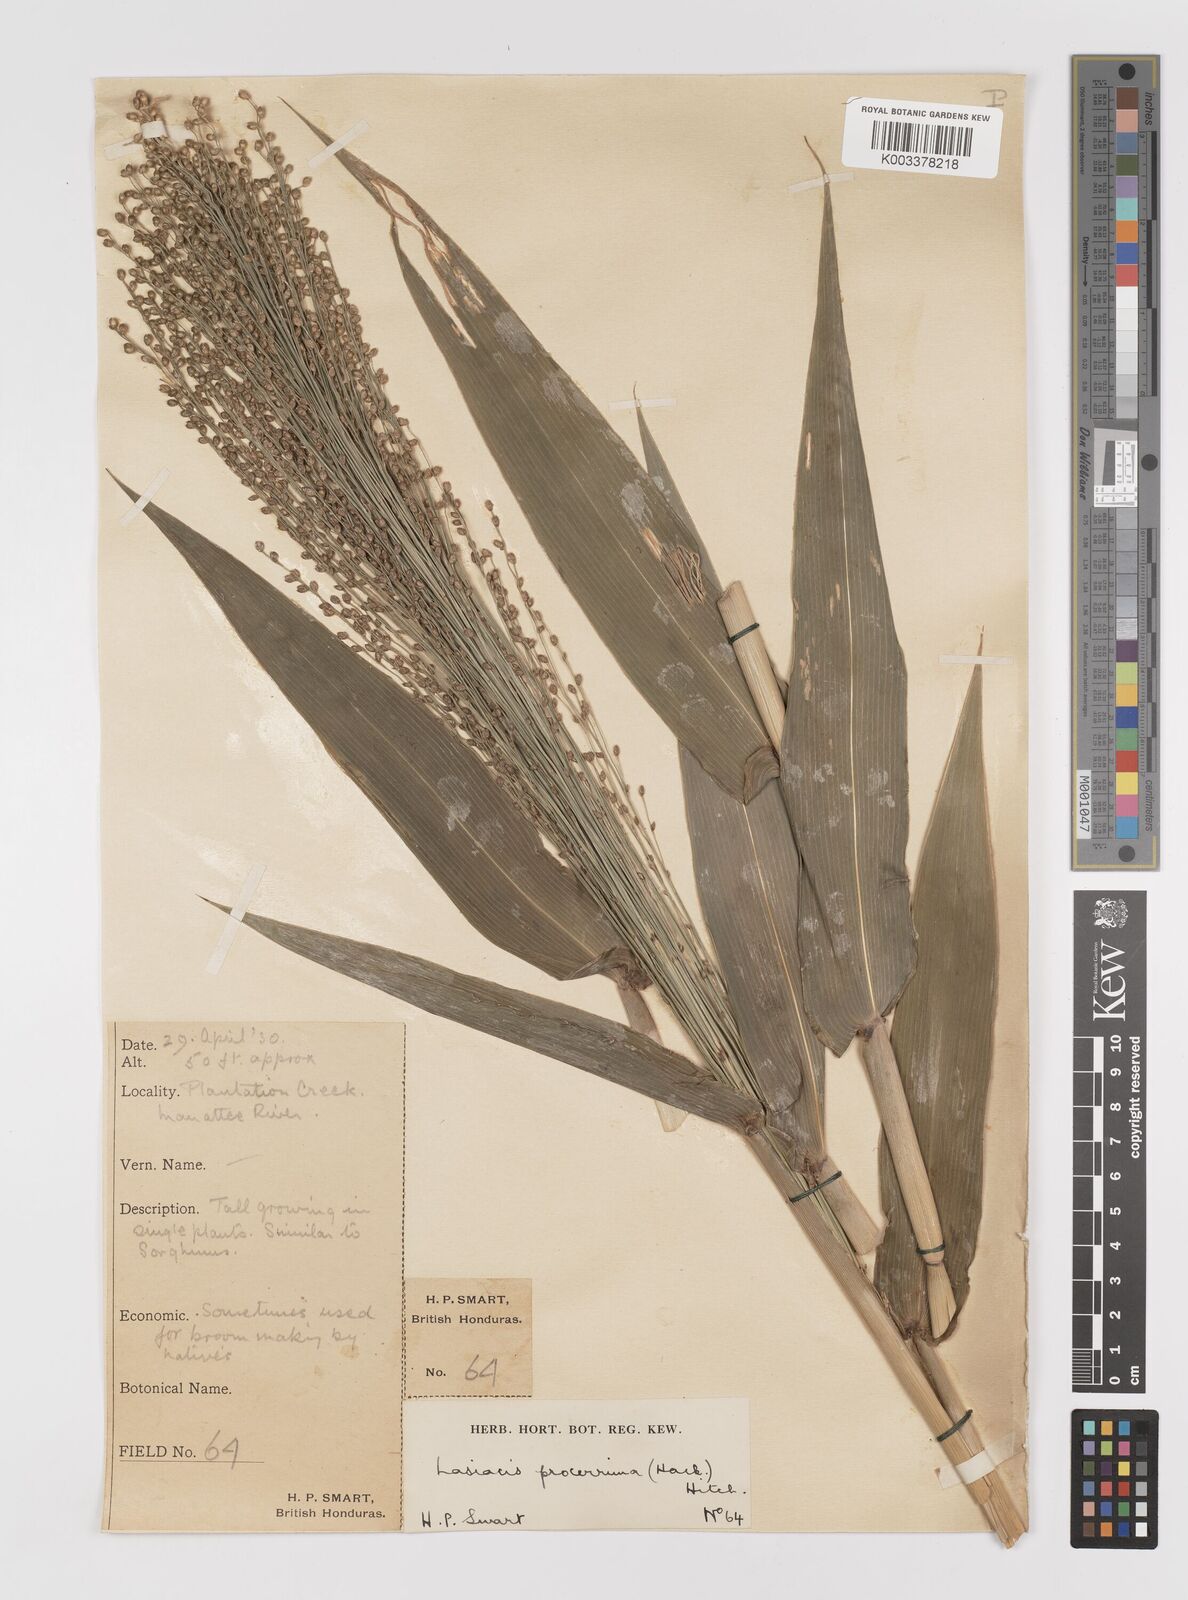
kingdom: Plantae
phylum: Tracheophyta
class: Liliopsida
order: Poales
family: Poaceae
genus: Lasiacis
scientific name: Lasiacis procerrima
